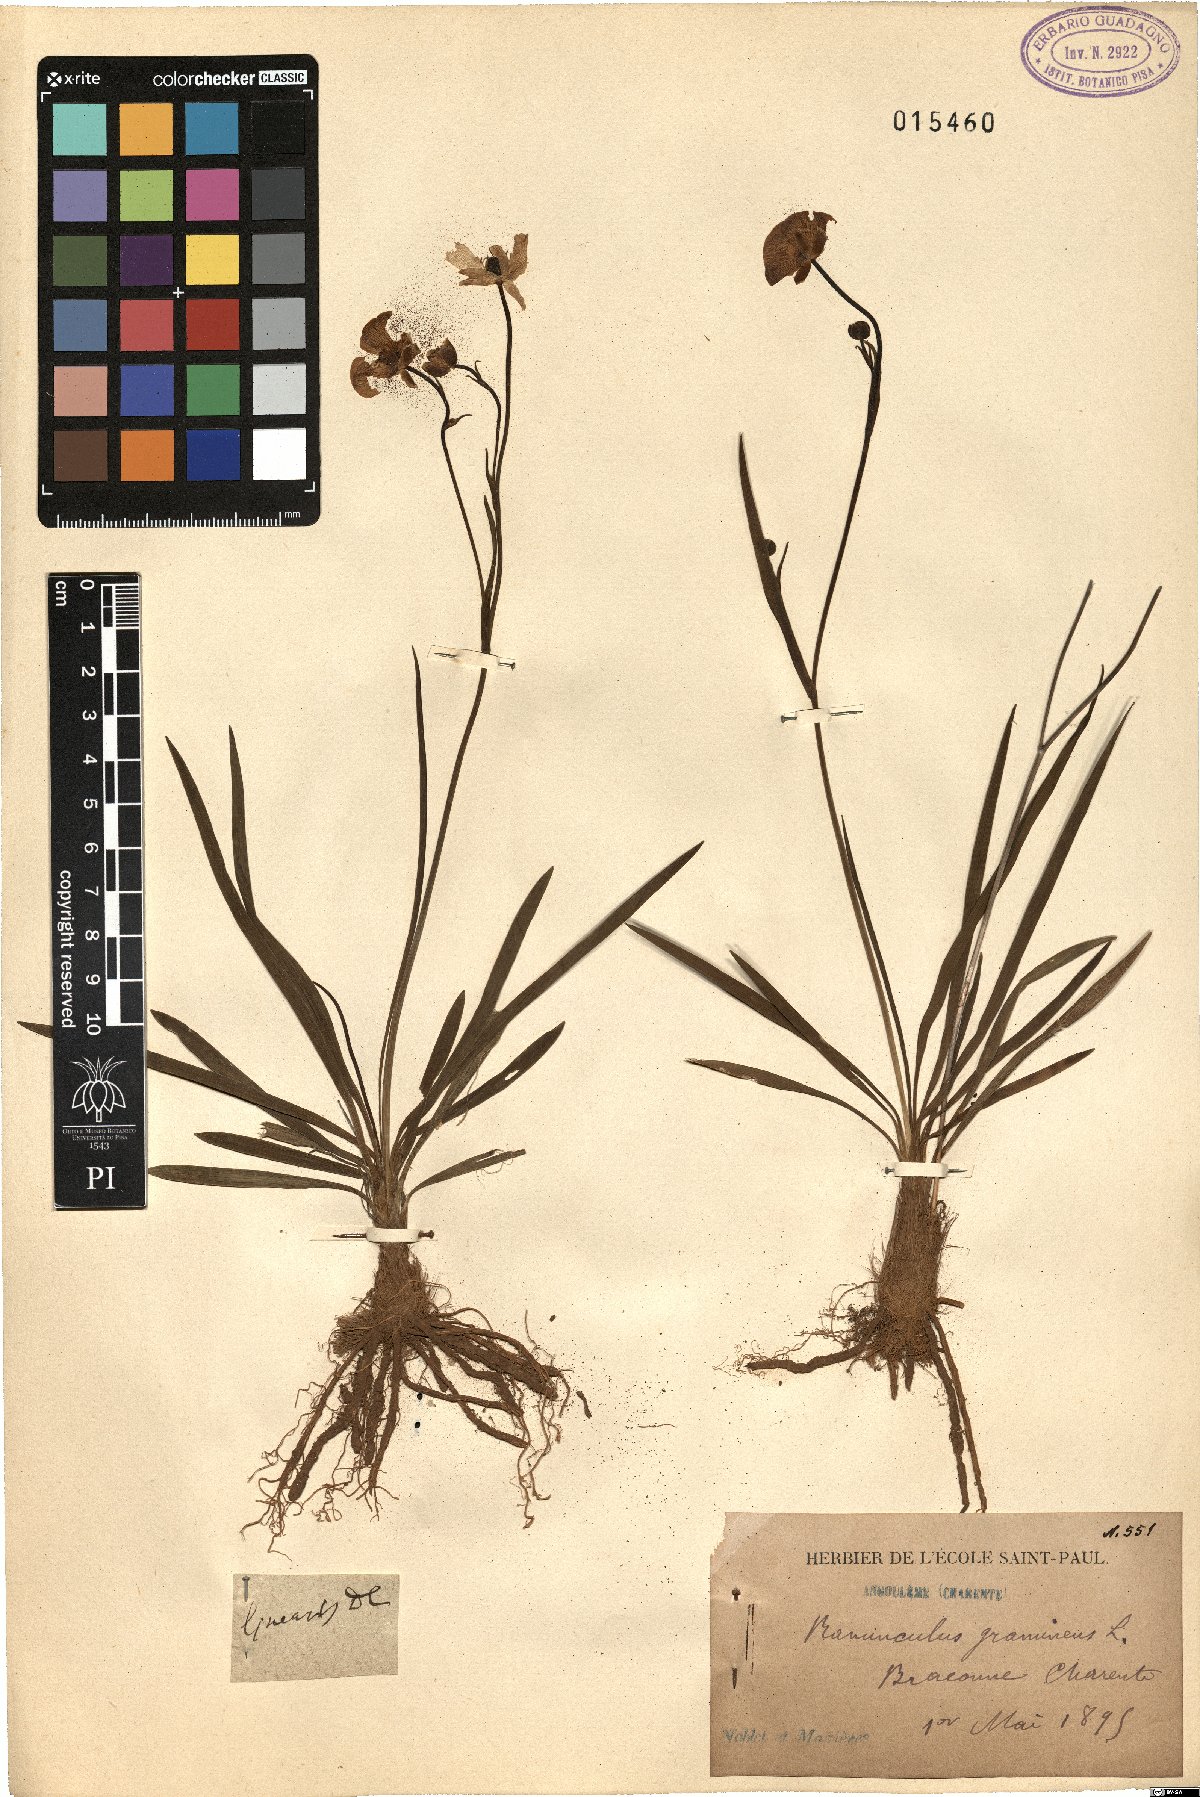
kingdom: Plantae
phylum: Tracheophyta
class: Magnoliopsida
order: Ranunculales
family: Ranunculaceae
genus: Ranunculus
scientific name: Ranunculus gramineus
